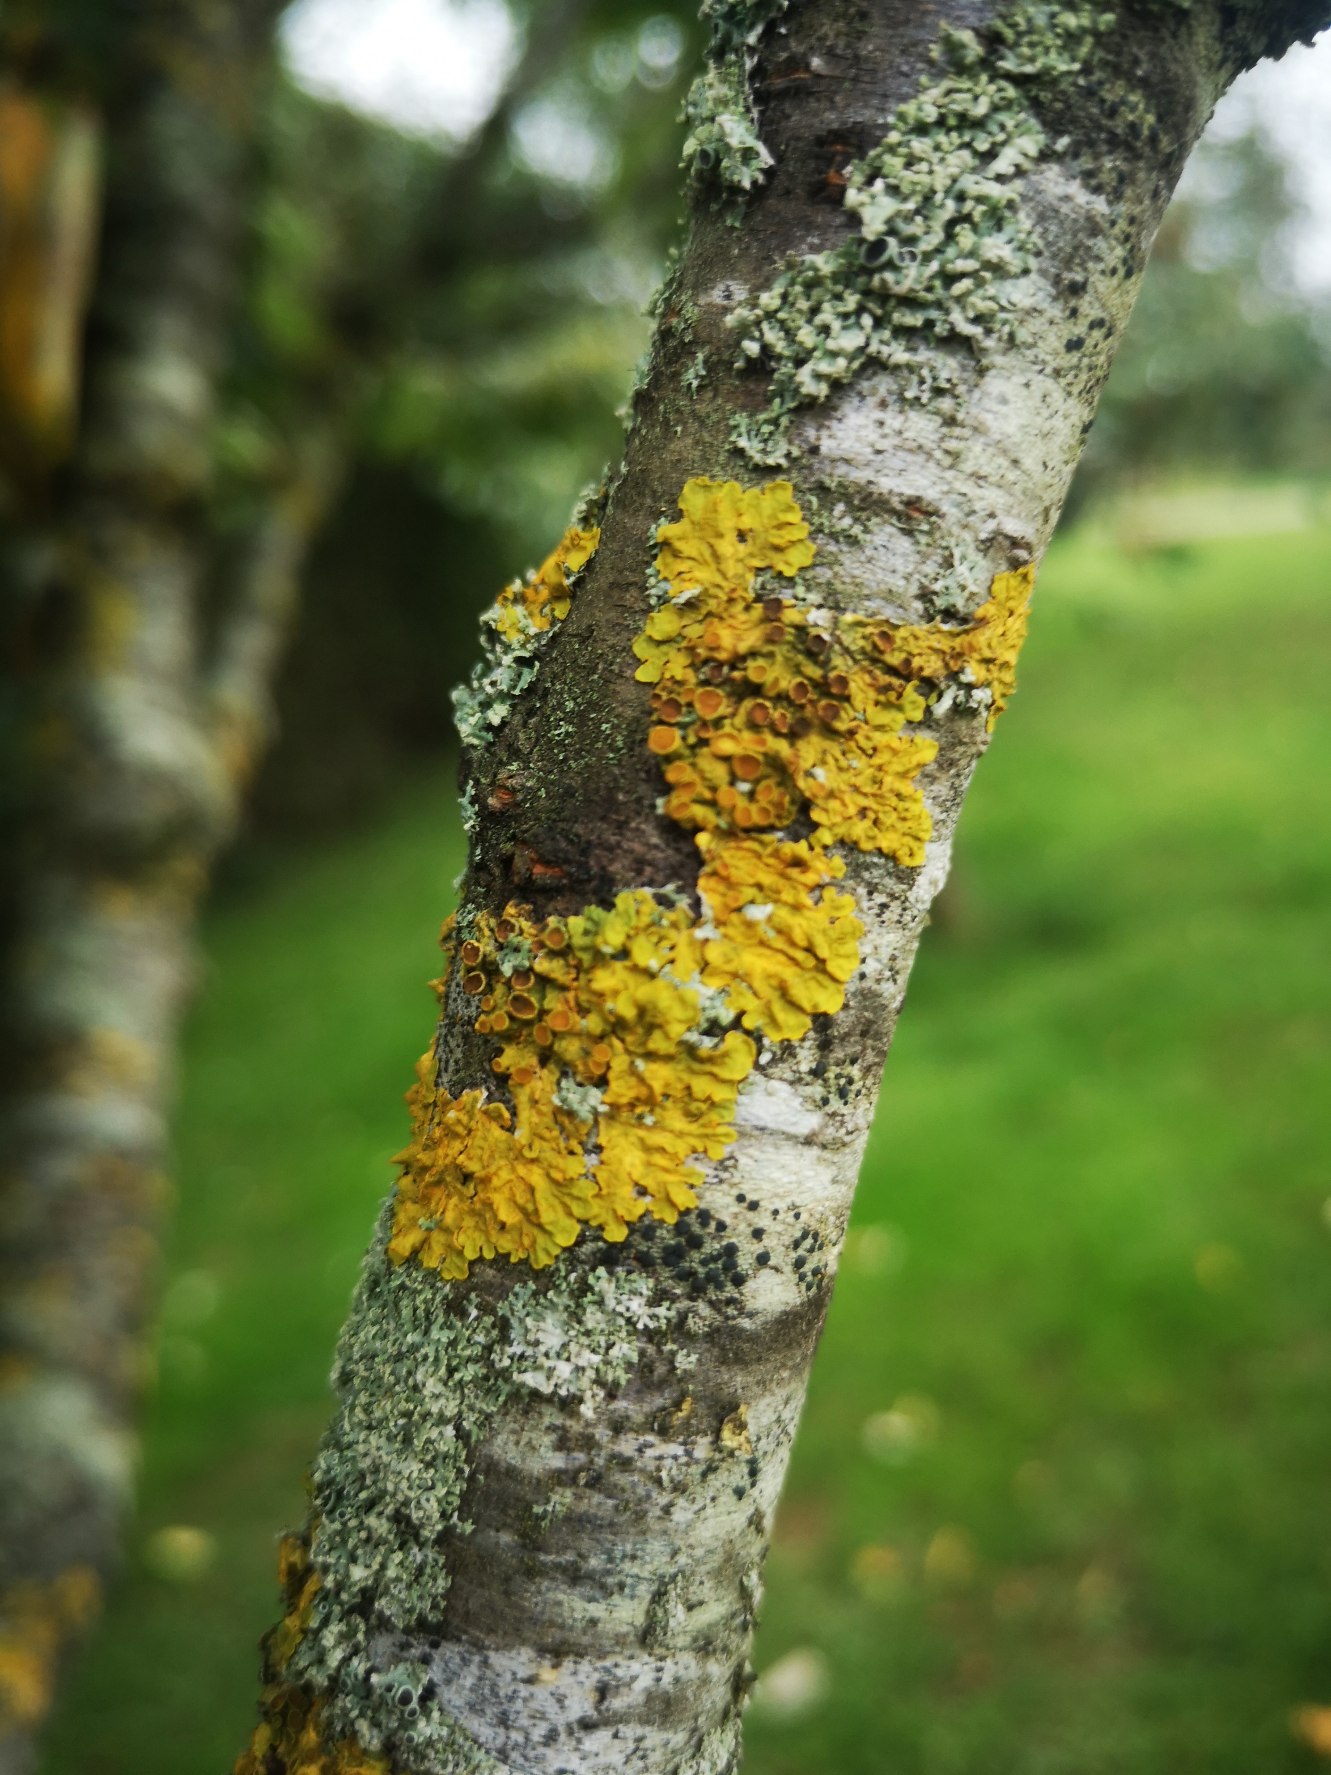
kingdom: Fungi
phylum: Ascomycota
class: Lecanoromycetes
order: Teloschistales
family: Teloschistaceae
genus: Xanthoria
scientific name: Xanthoria parietina
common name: Almindelig væggelav
